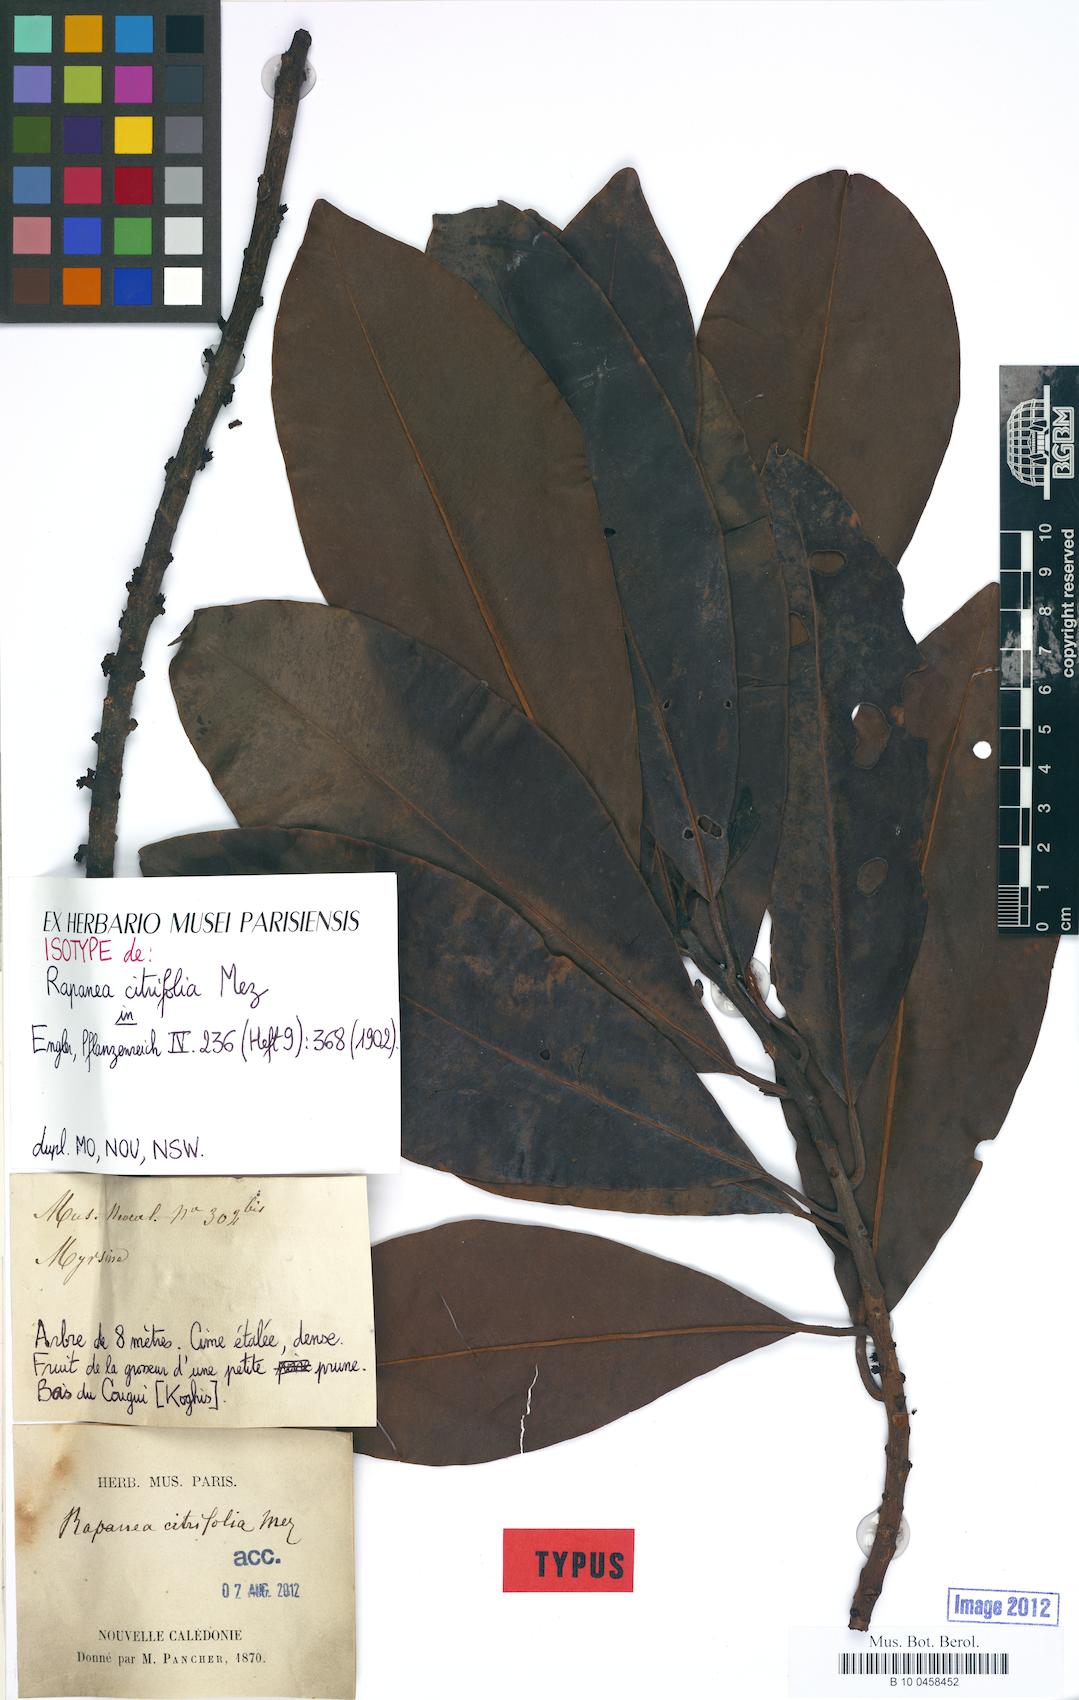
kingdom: Plantae
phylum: Tracheophyta
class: Magnoliopsida
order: Ericales
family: Primulaceae
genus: Myrsine
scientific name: Myrsine citrifolia
